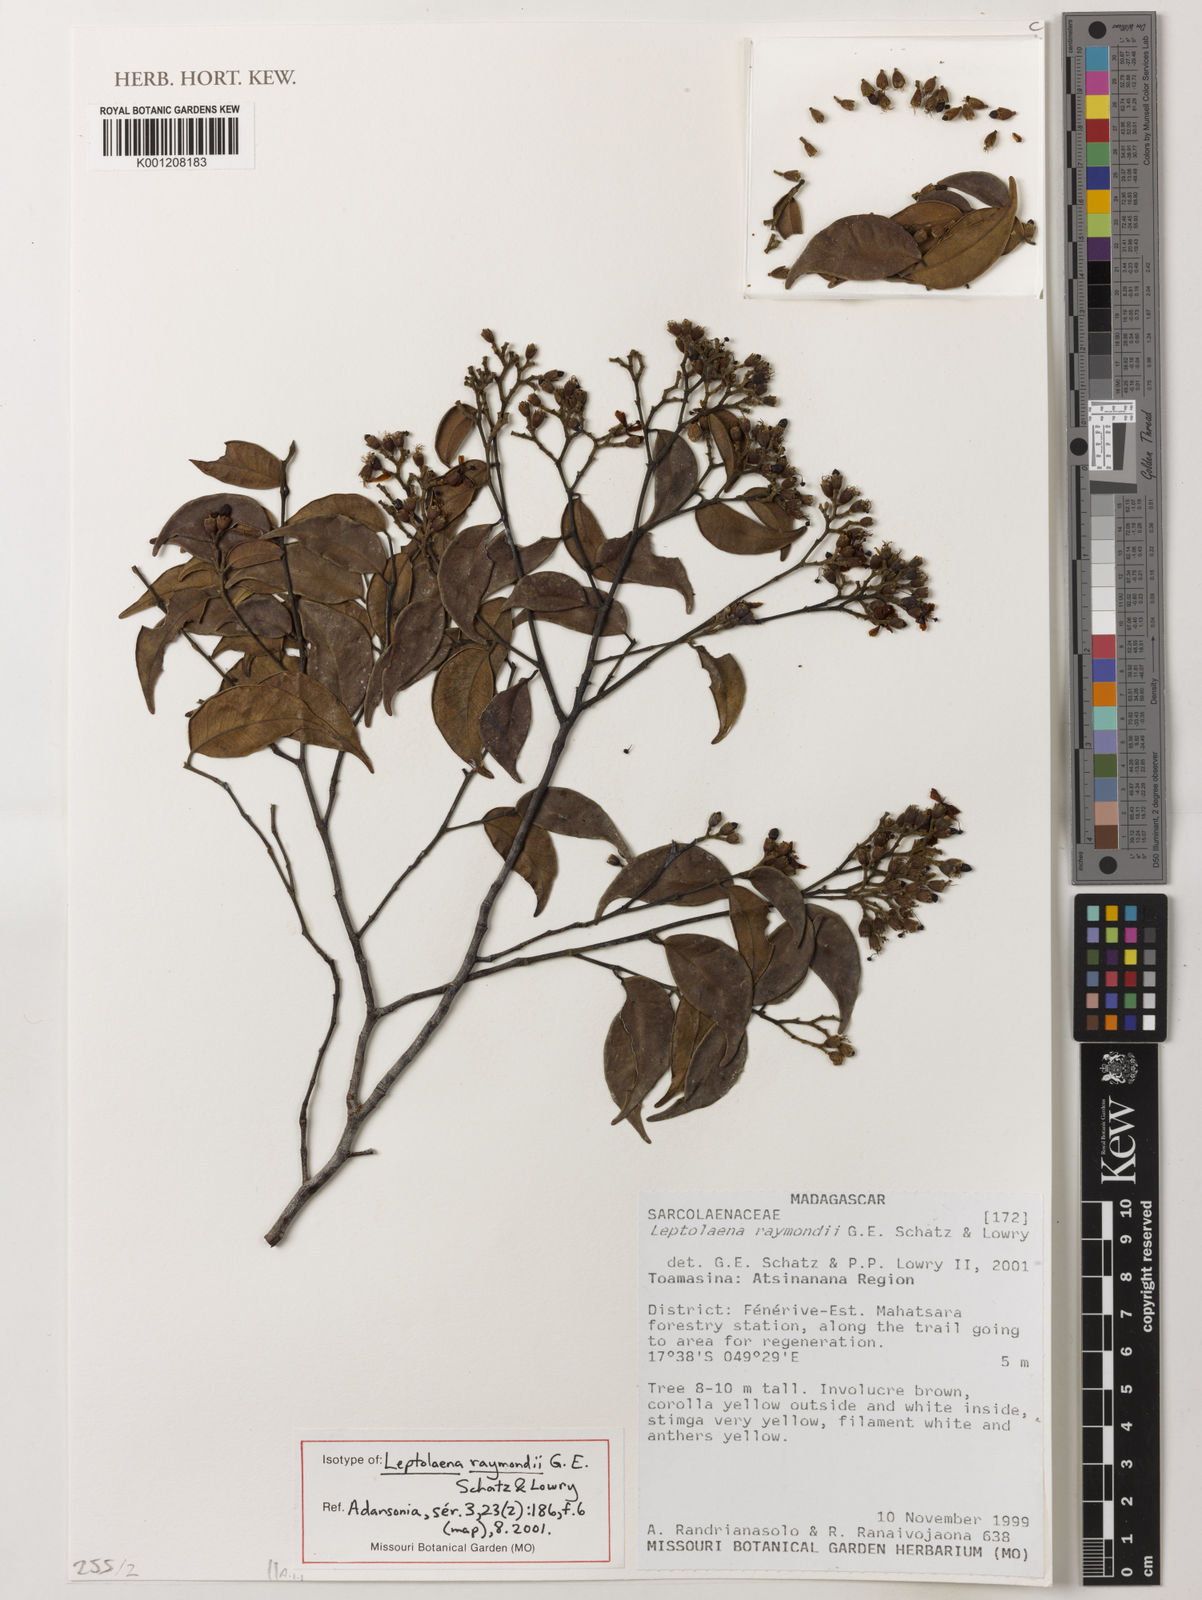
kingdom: Plantae
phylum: Tracheophyta
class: Magnoliopsida
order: Malvales
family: Sarcolaenaceae
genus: Leptolaena
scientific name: Leptolaena raymondii
